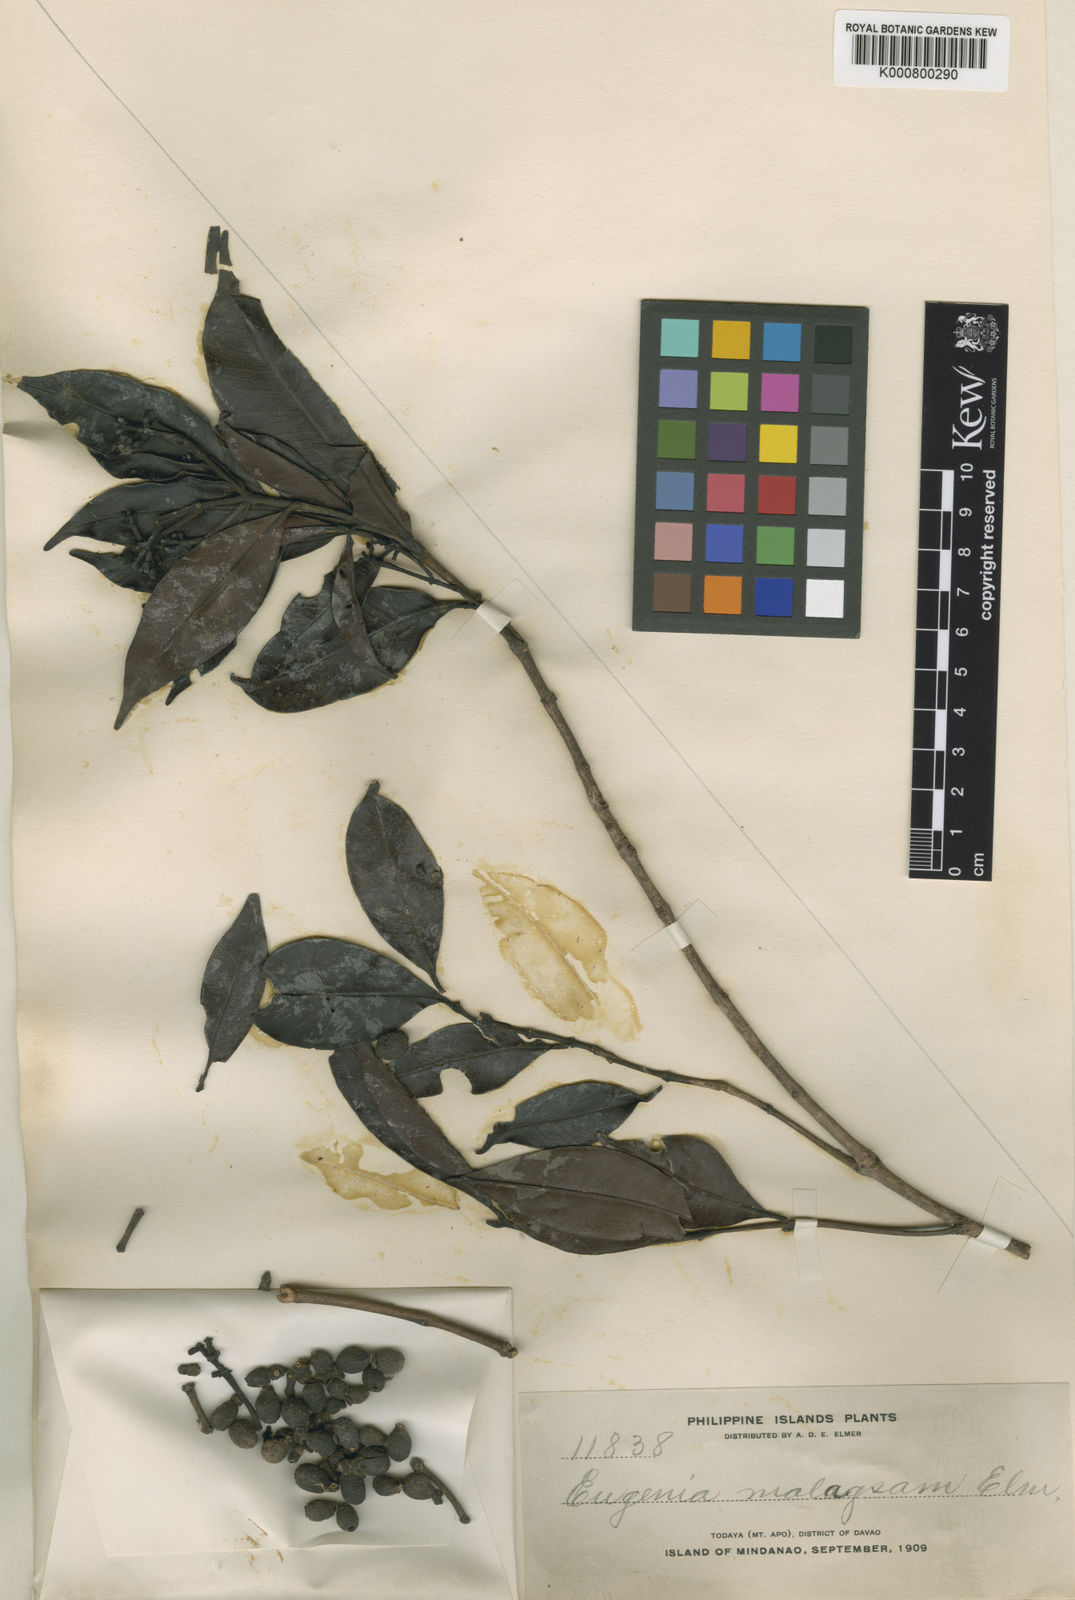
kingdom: Plantae
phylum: Tracheophyta
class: Magnoliopsida
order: Myrtales
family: Myrtaceae
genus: Syzygium
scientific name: Syzygium malagsam
